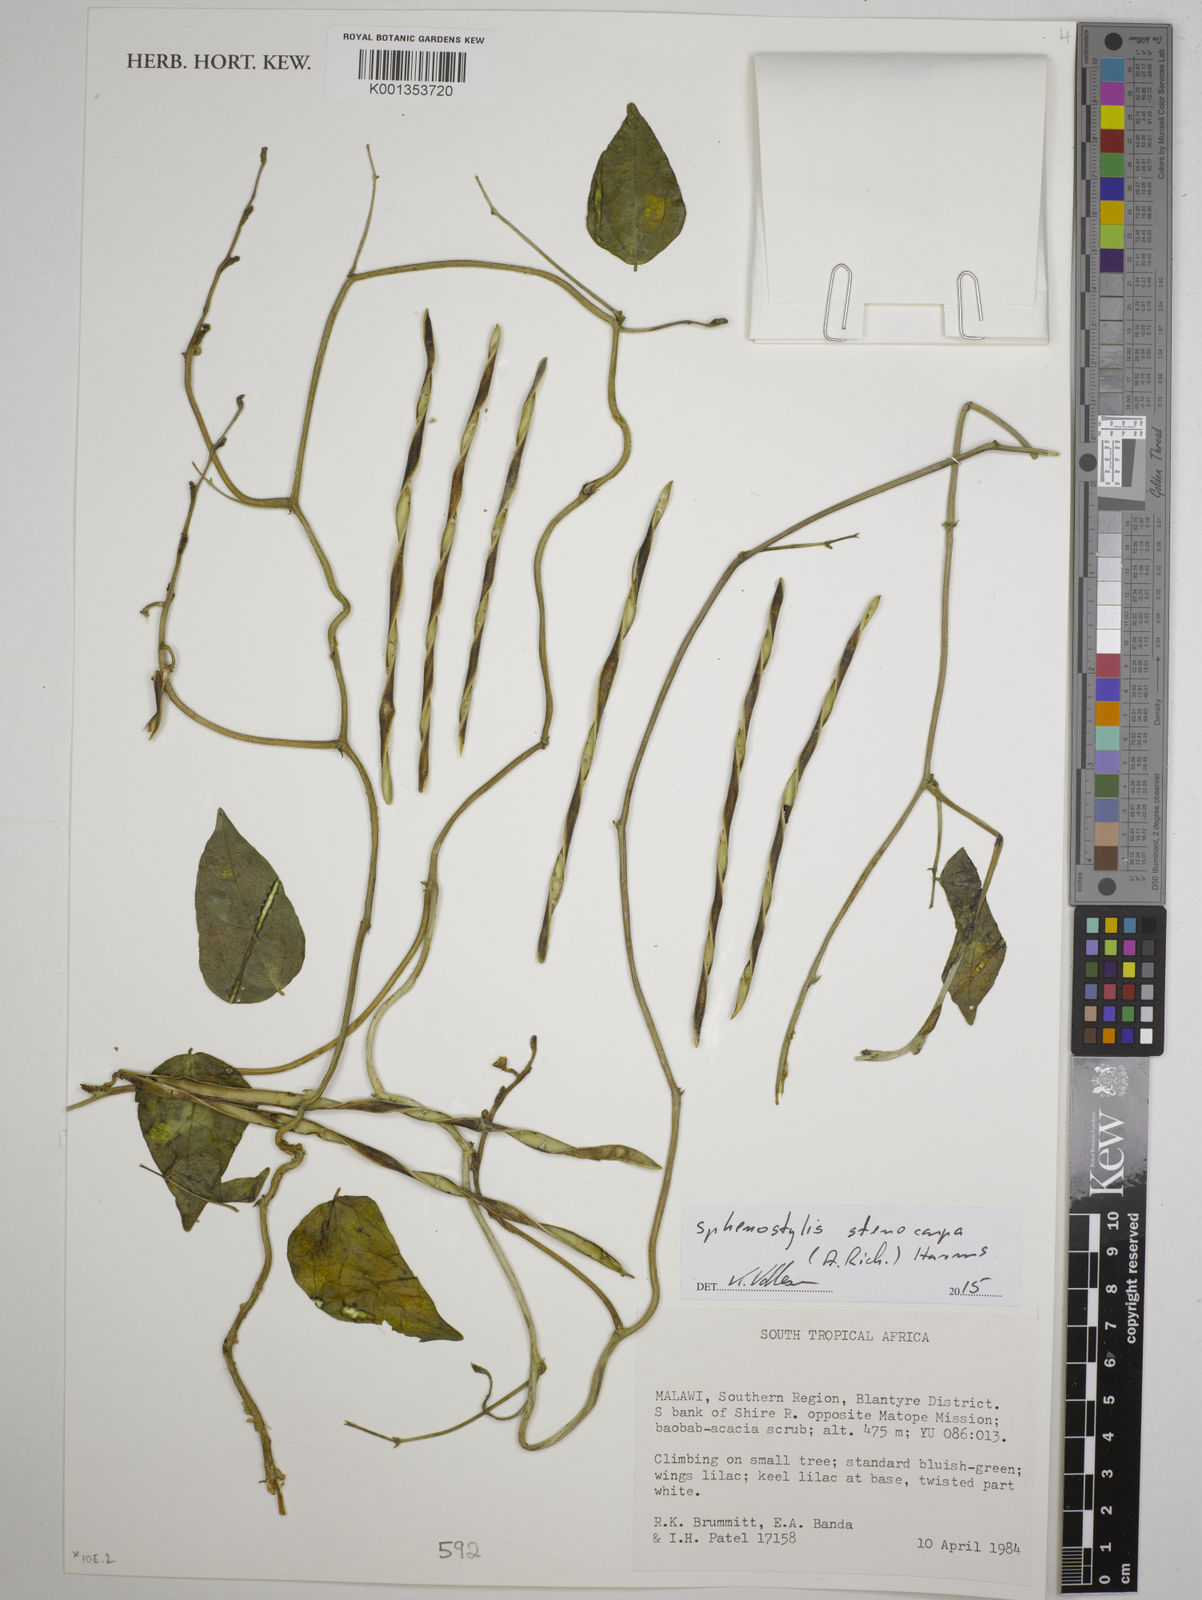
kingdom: Plantae
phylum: Tracheophyta
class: Magnoliopsida
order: Fabales
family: Fabaceae
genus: Sphenostylis
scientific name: Sphenostylis stenocarpa
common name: Yam-pea
